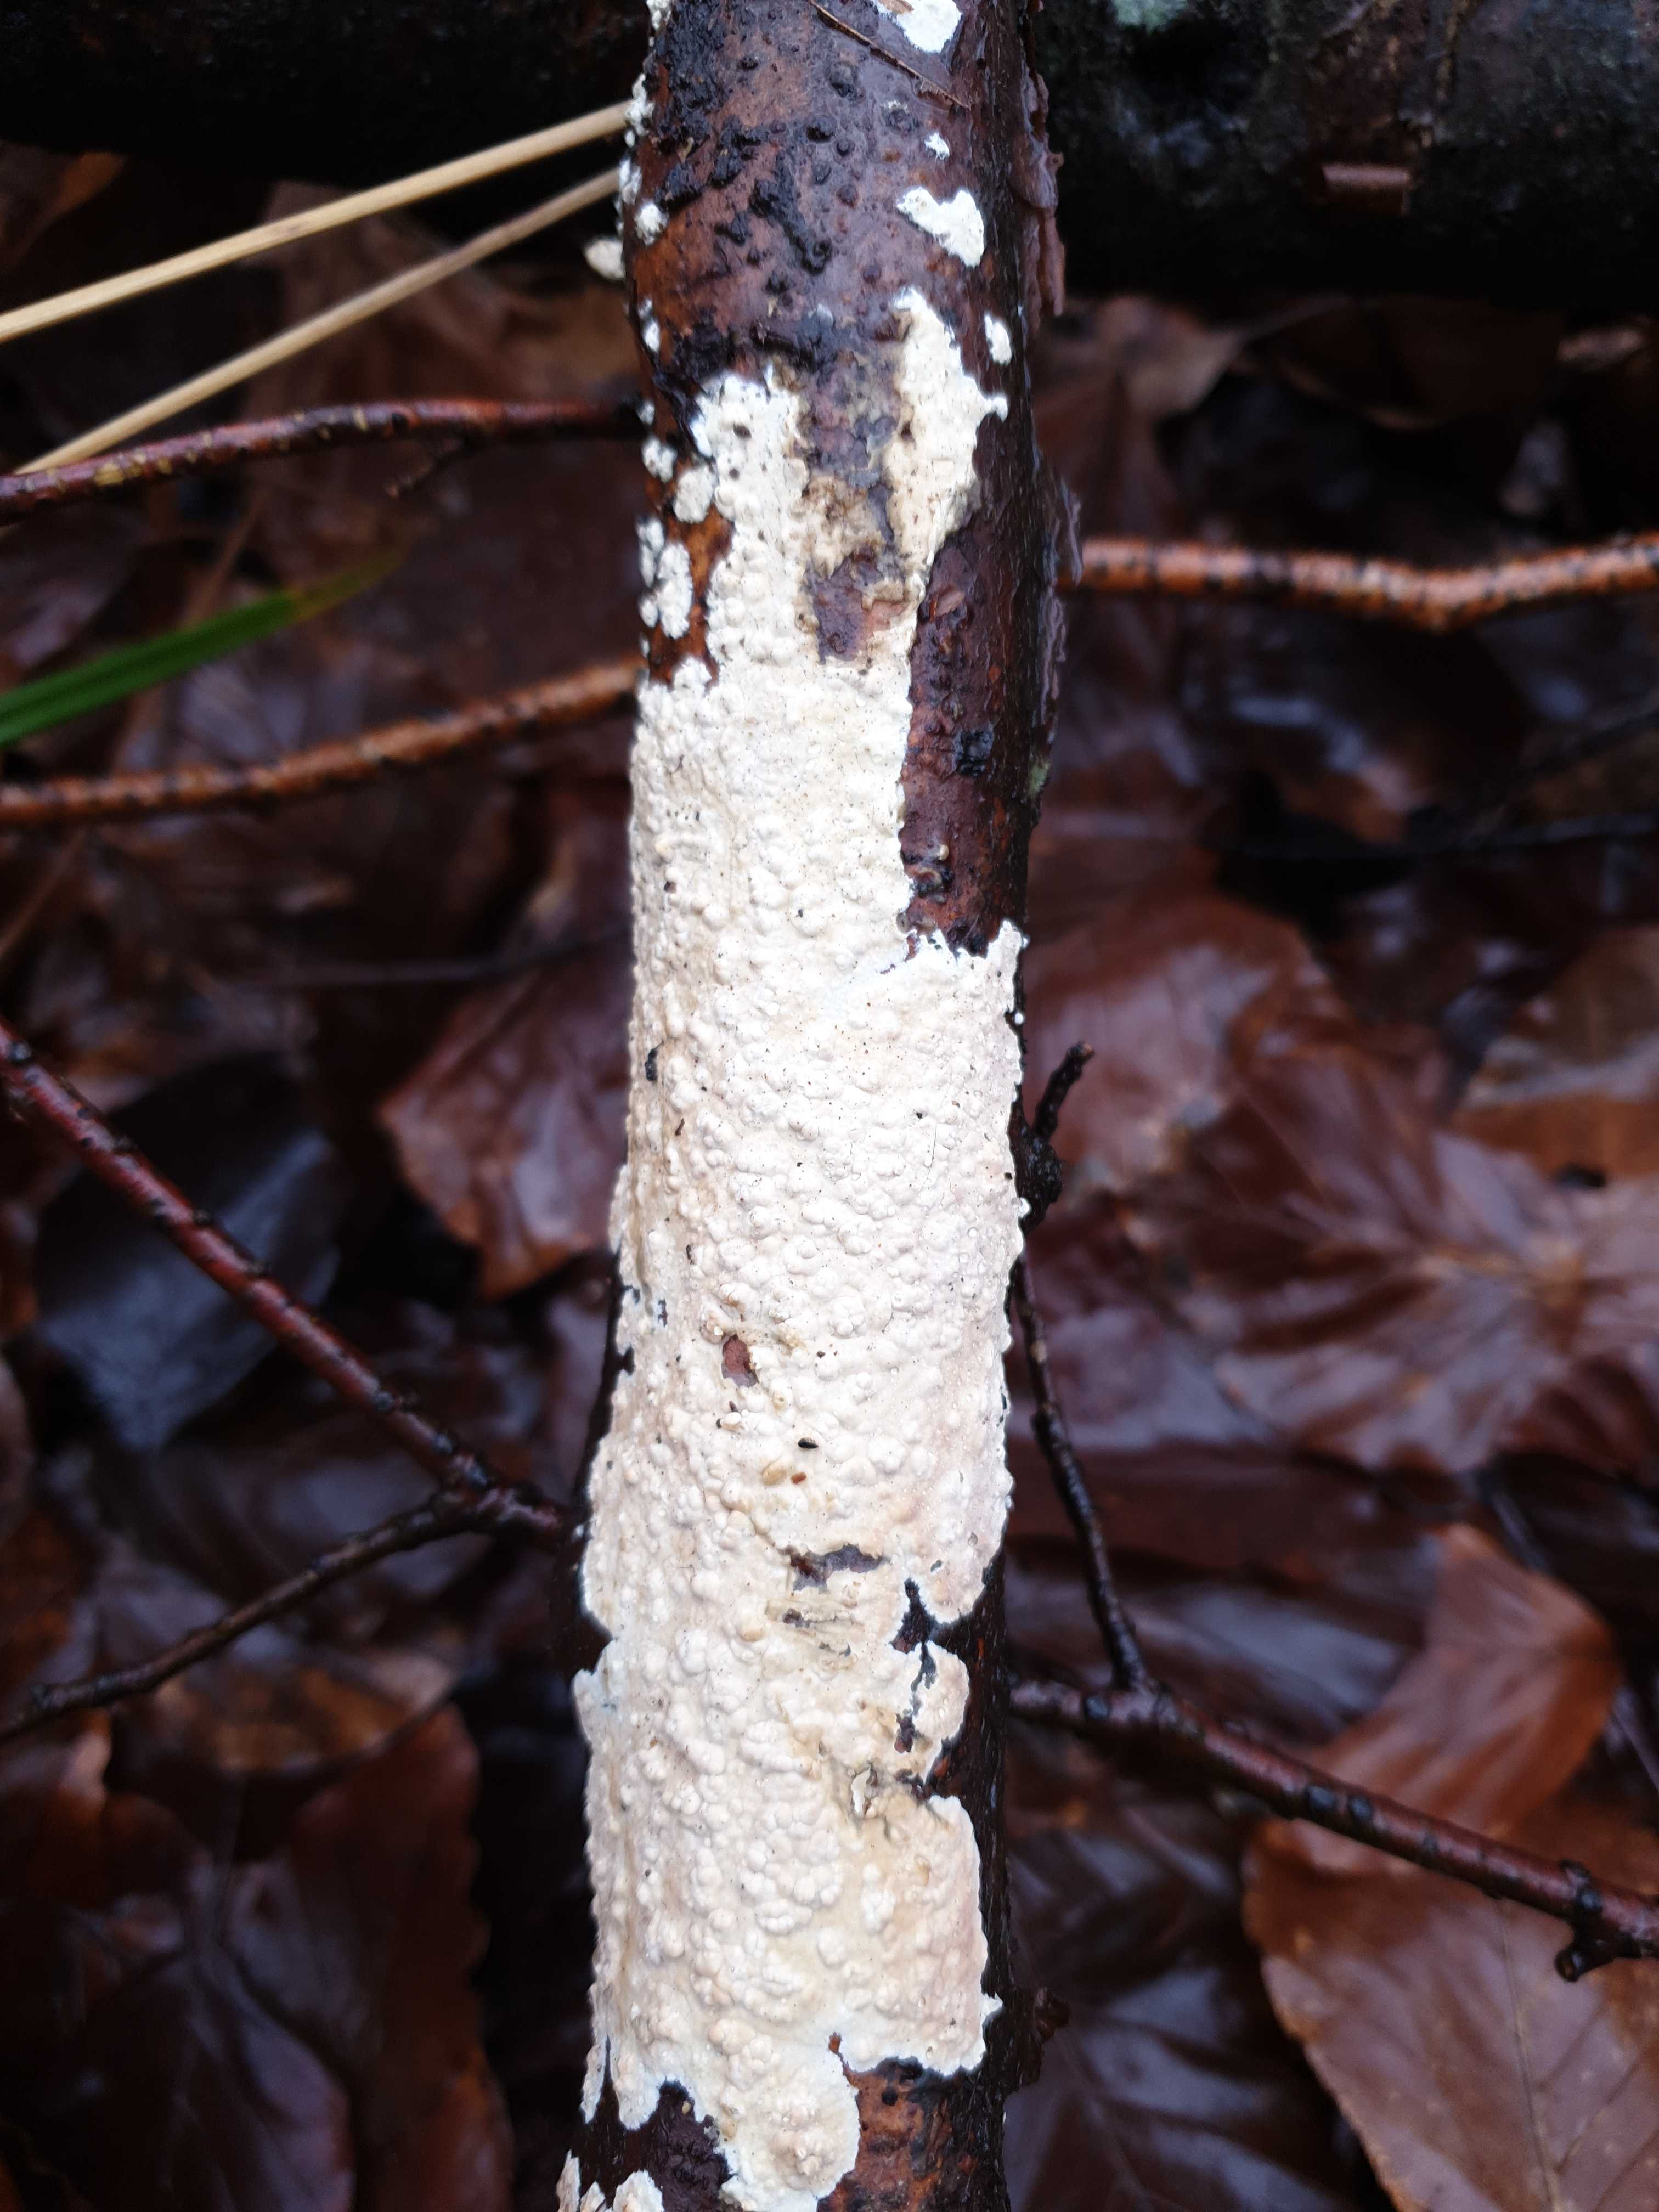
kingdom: Fungi
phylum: Basidiomycota
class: Agaricomycetes
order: Agaricales
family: Physalacriaceae
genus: Cylindrobasidium
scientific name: Cylindrobasidium evolvens
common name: sprækkehinde
